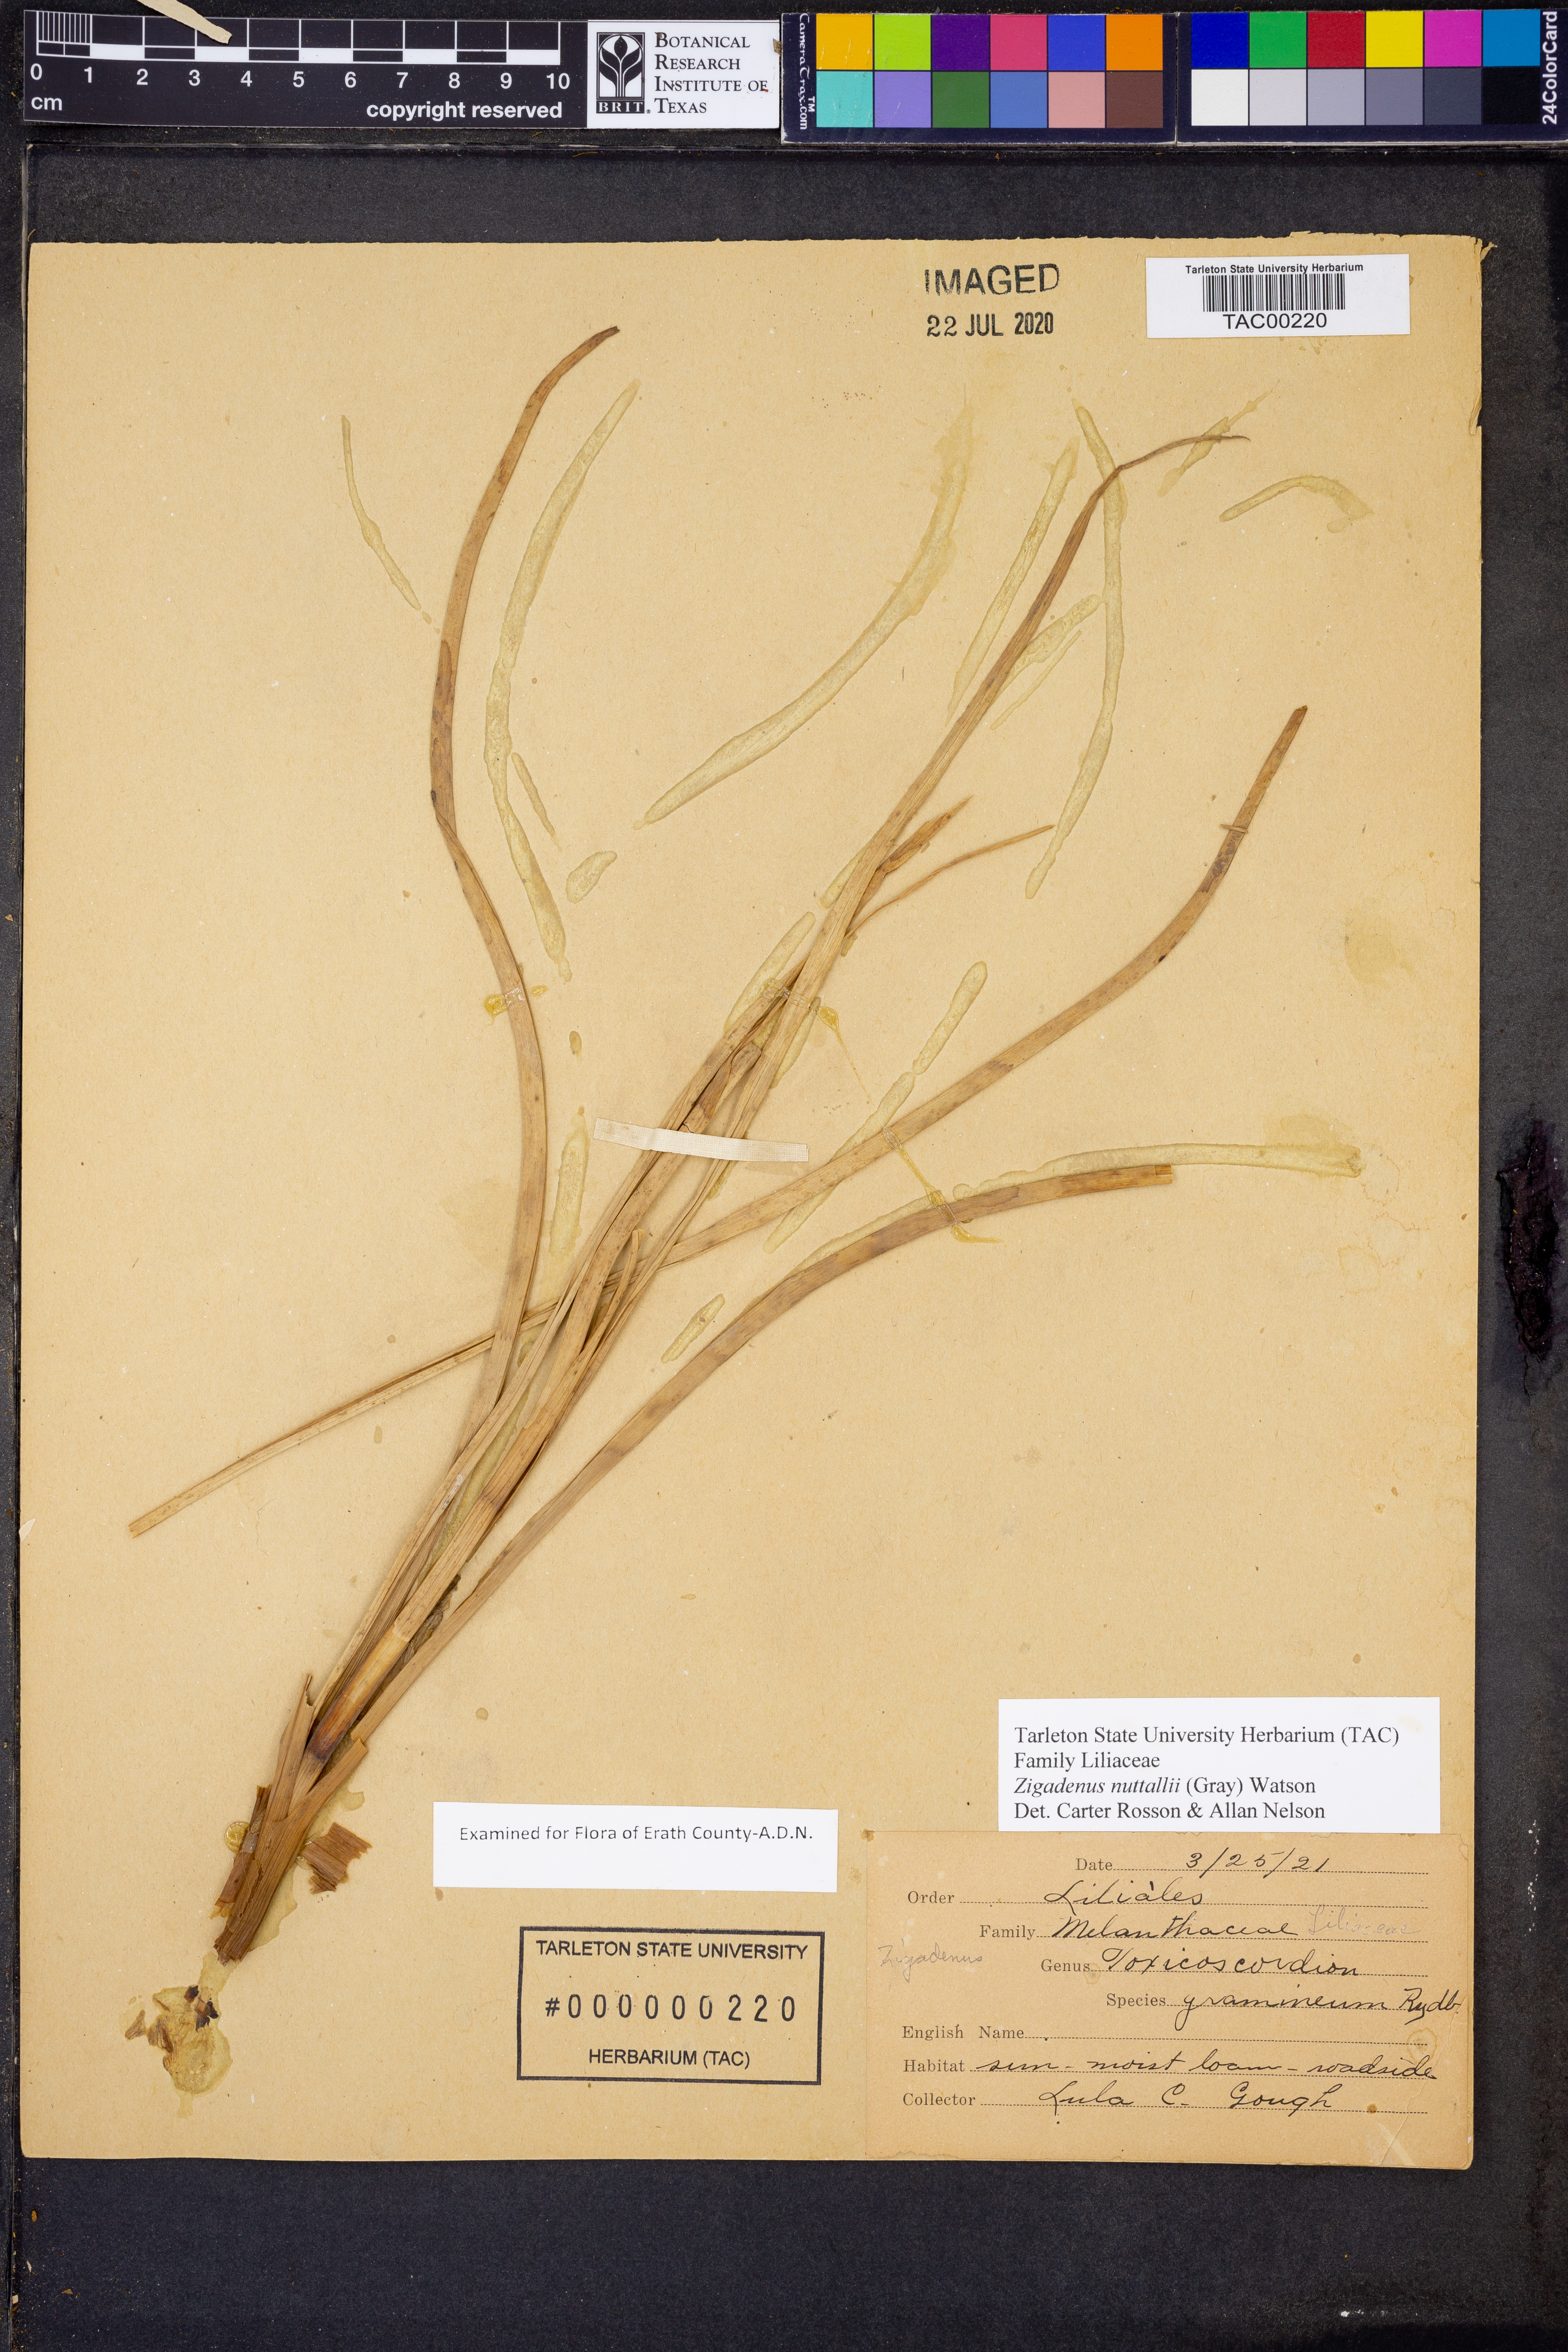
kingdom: Plantae
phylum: Tracheophyta
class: Liliopsida
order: Liliales
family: Melanthiaceae
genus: Toxicoscordion
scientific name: Toxicoscordion nuttallii
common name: Poison sego
